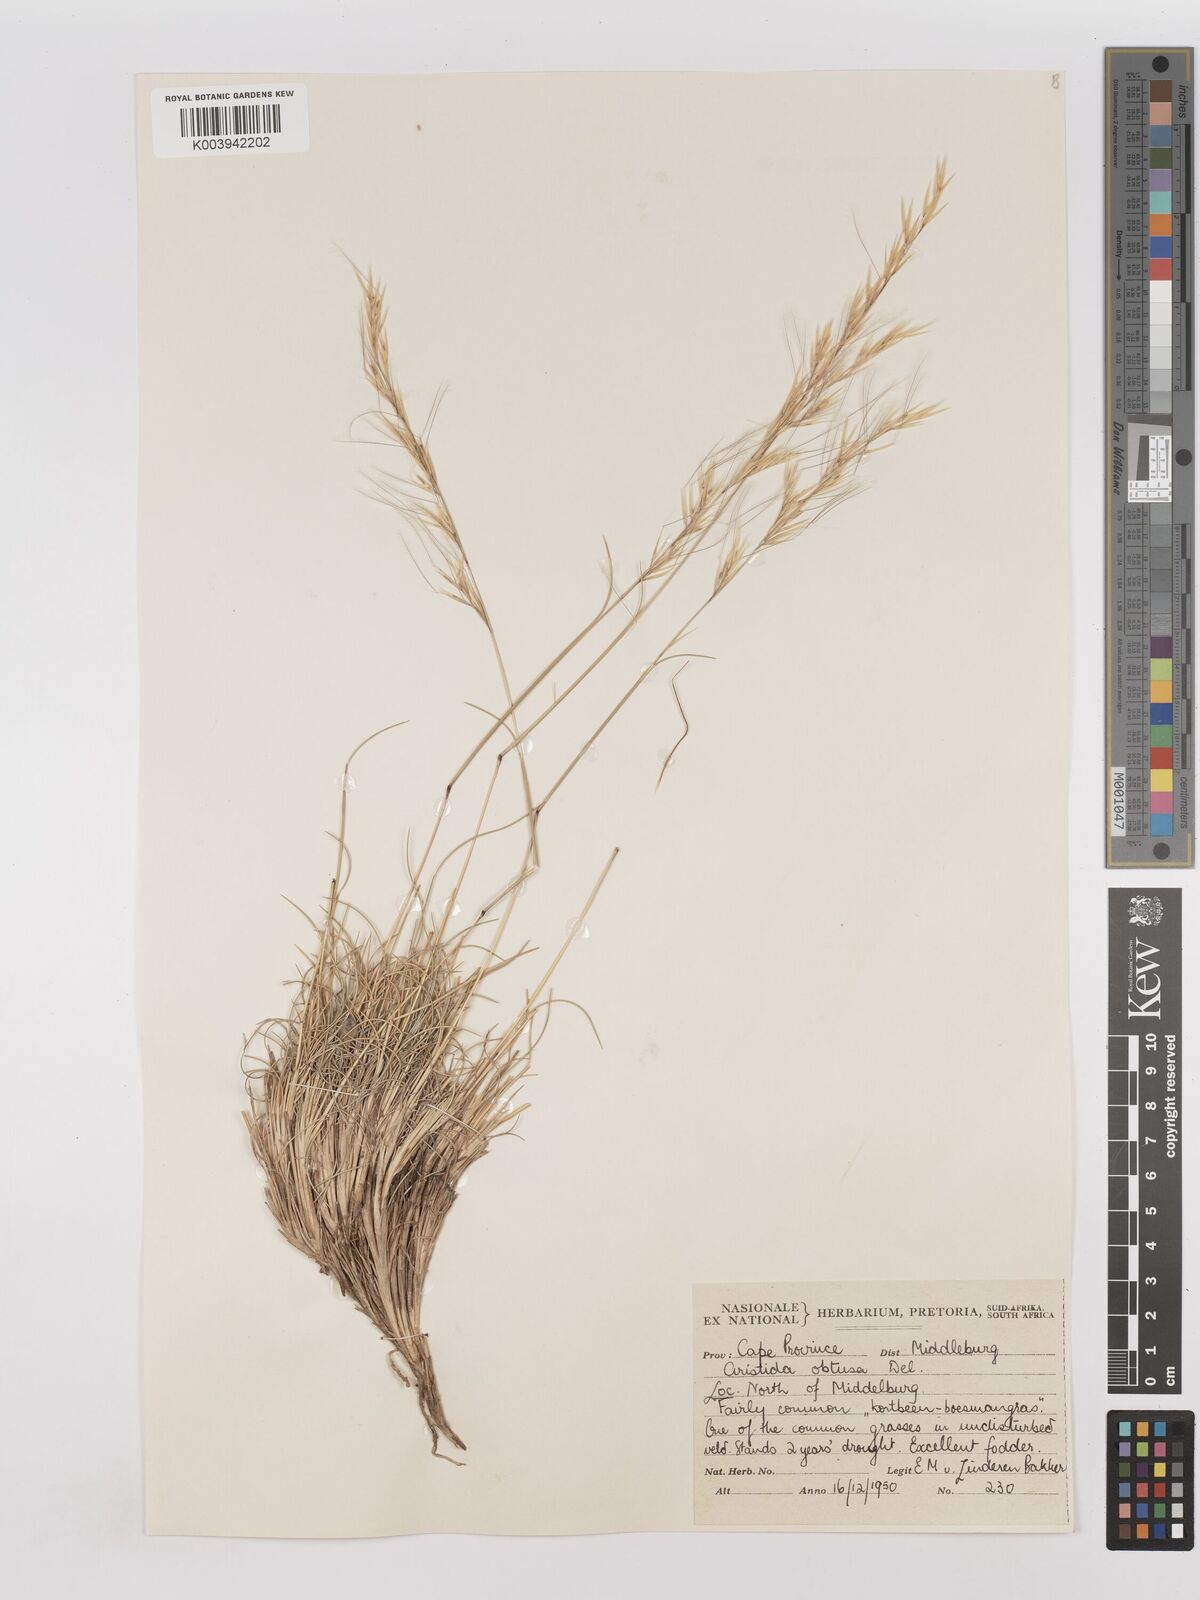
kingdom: Plantae
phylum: Tracheophyta
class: Liliopsida
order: Poales
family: Poaceae
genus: Stipagrostis
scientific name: Stipagrostis obtusa
